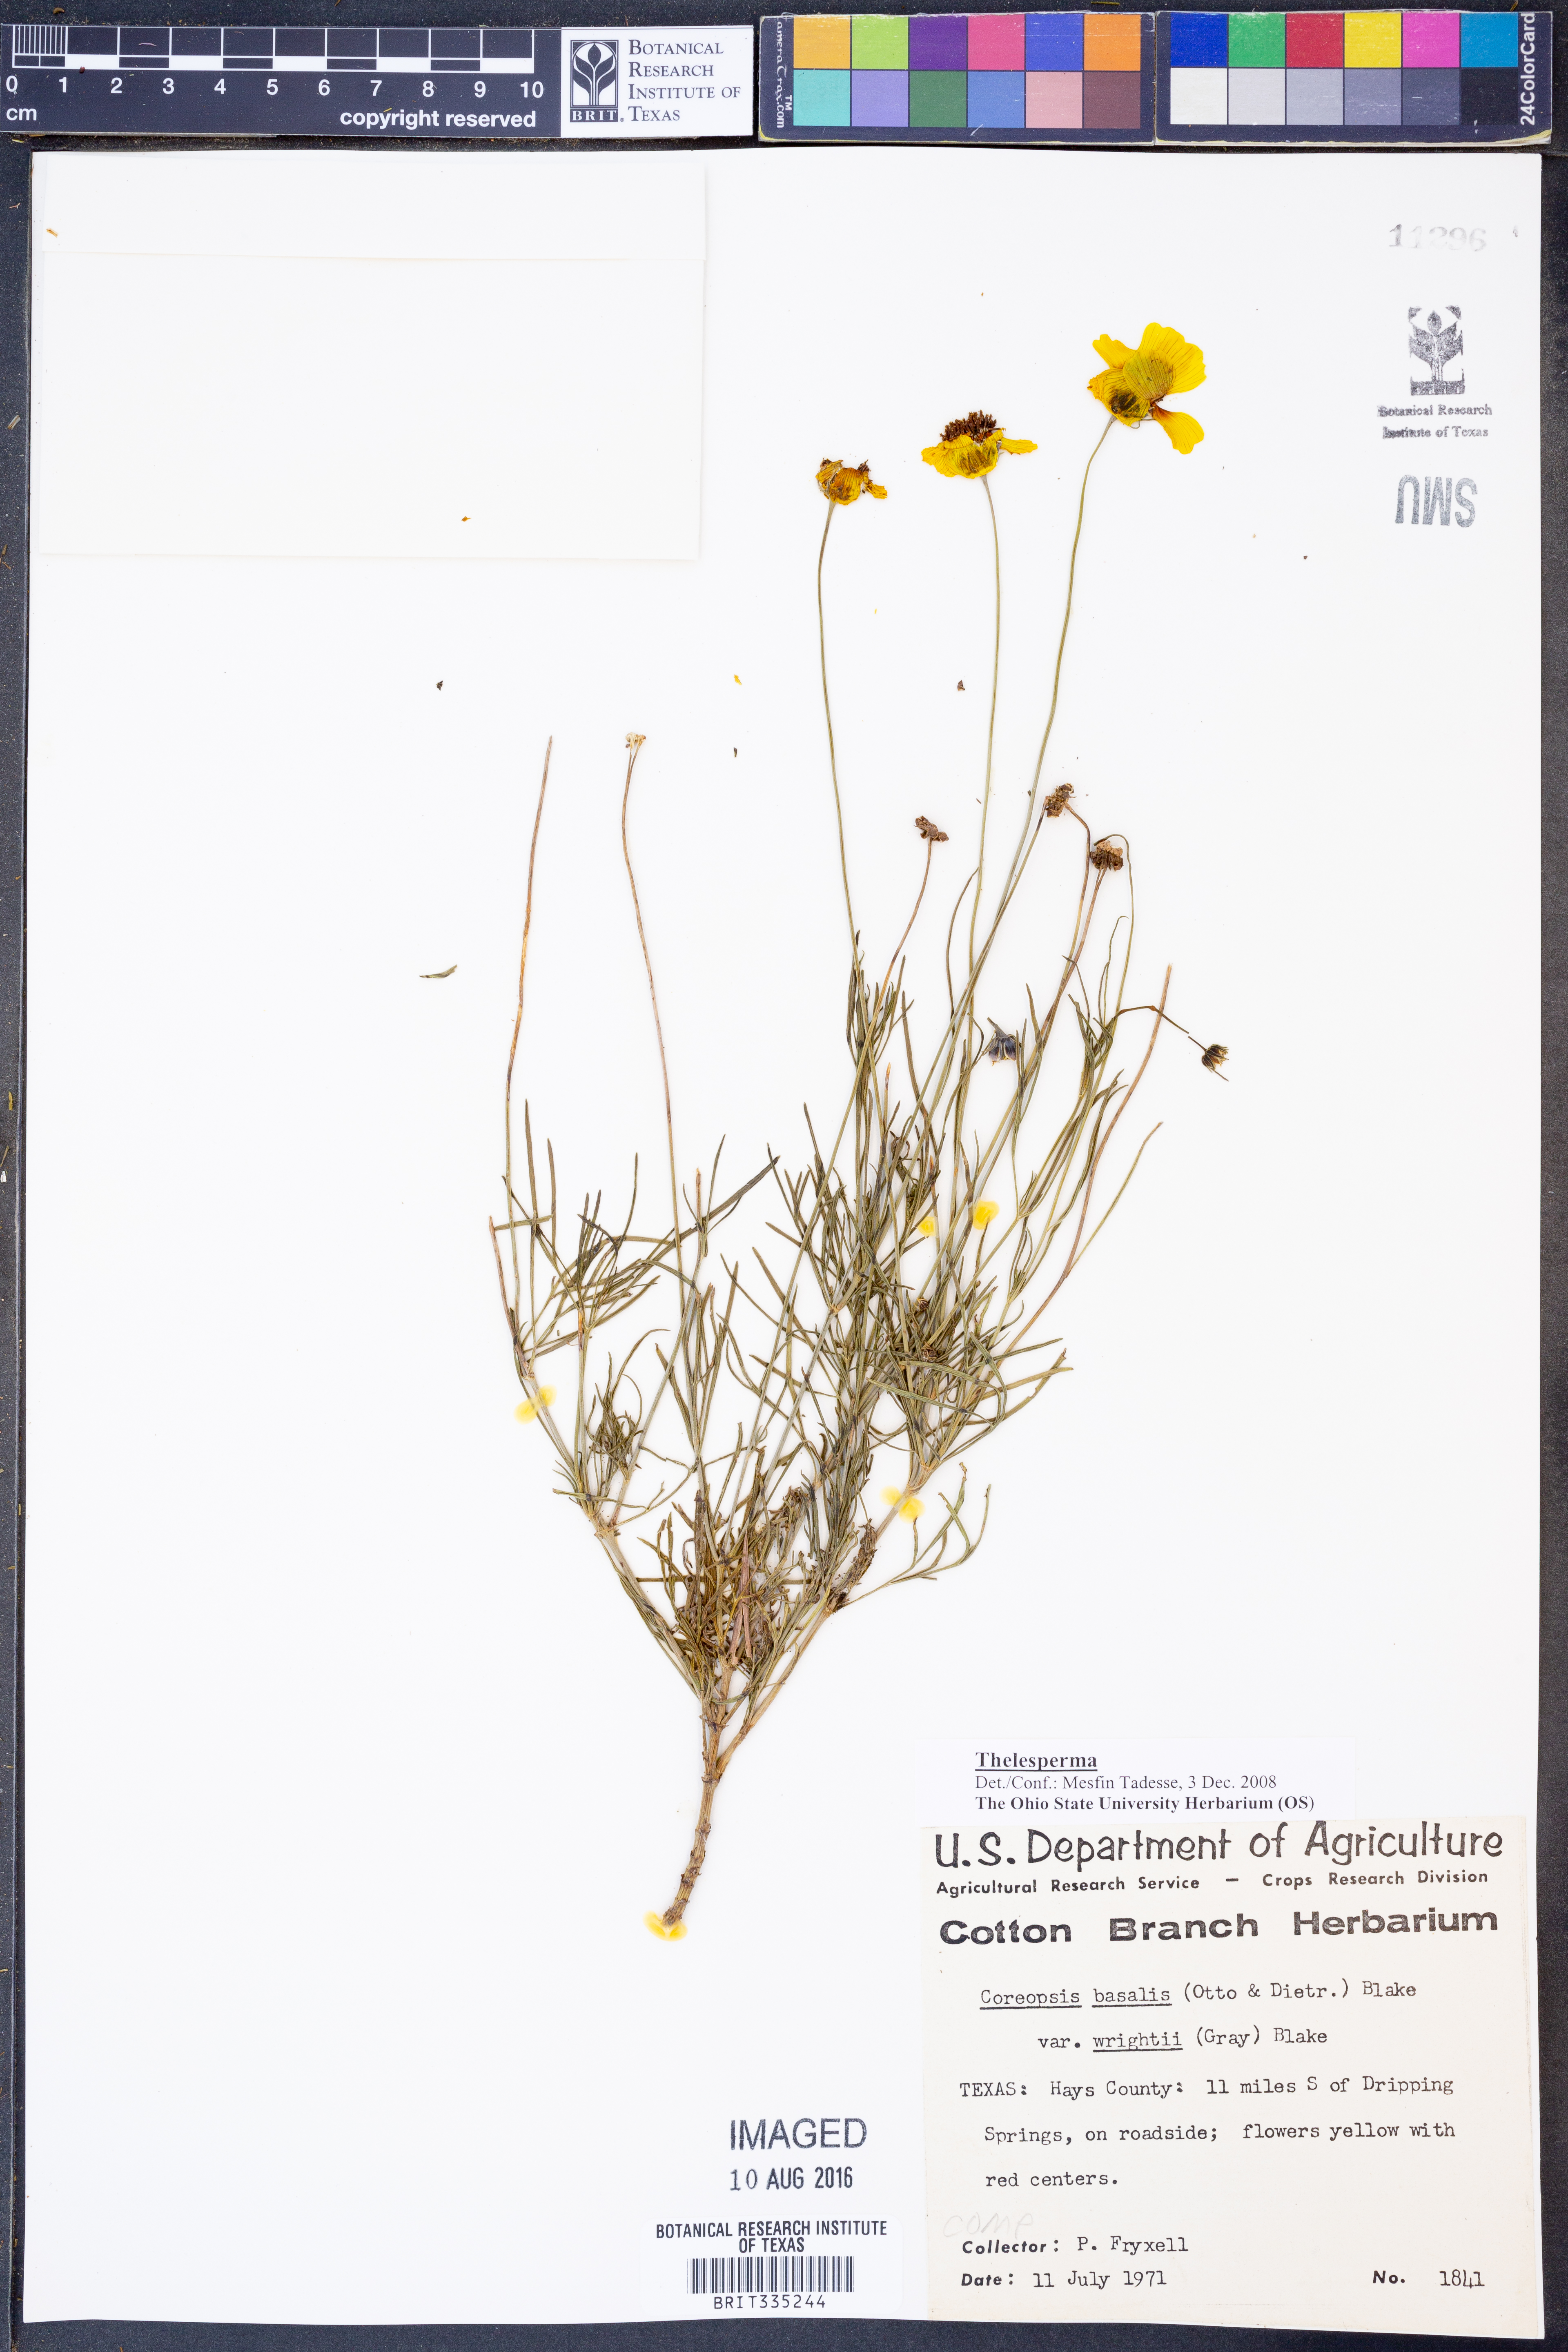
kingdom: Plantae
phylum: Tracheophyta
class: Magnoliopsida
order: Asterales
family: Asteraceae
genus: Thelesperma
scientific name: Thelesperma
